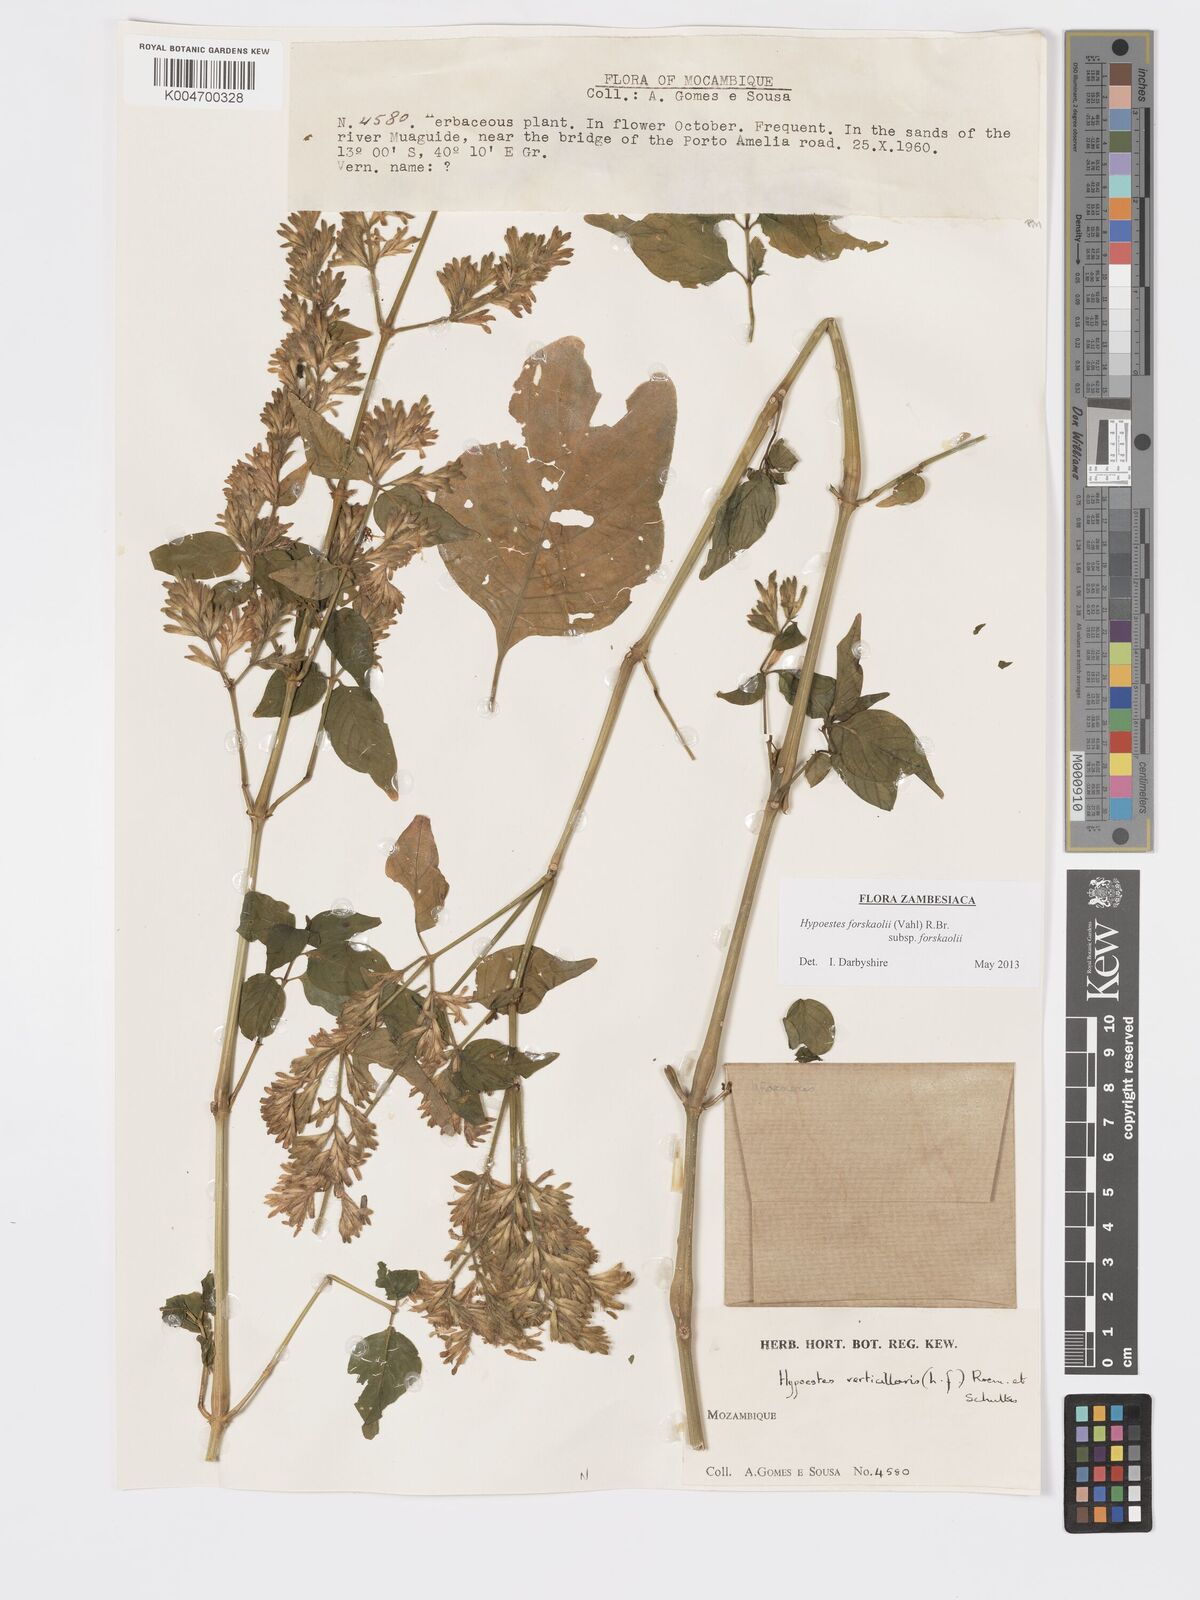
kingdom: Plantae
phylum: Tracheophyta
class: Magnoliopsida
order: Lamiales
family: Acanthaceae
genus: Hypoestes
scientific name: Hypoestes forskaolii
